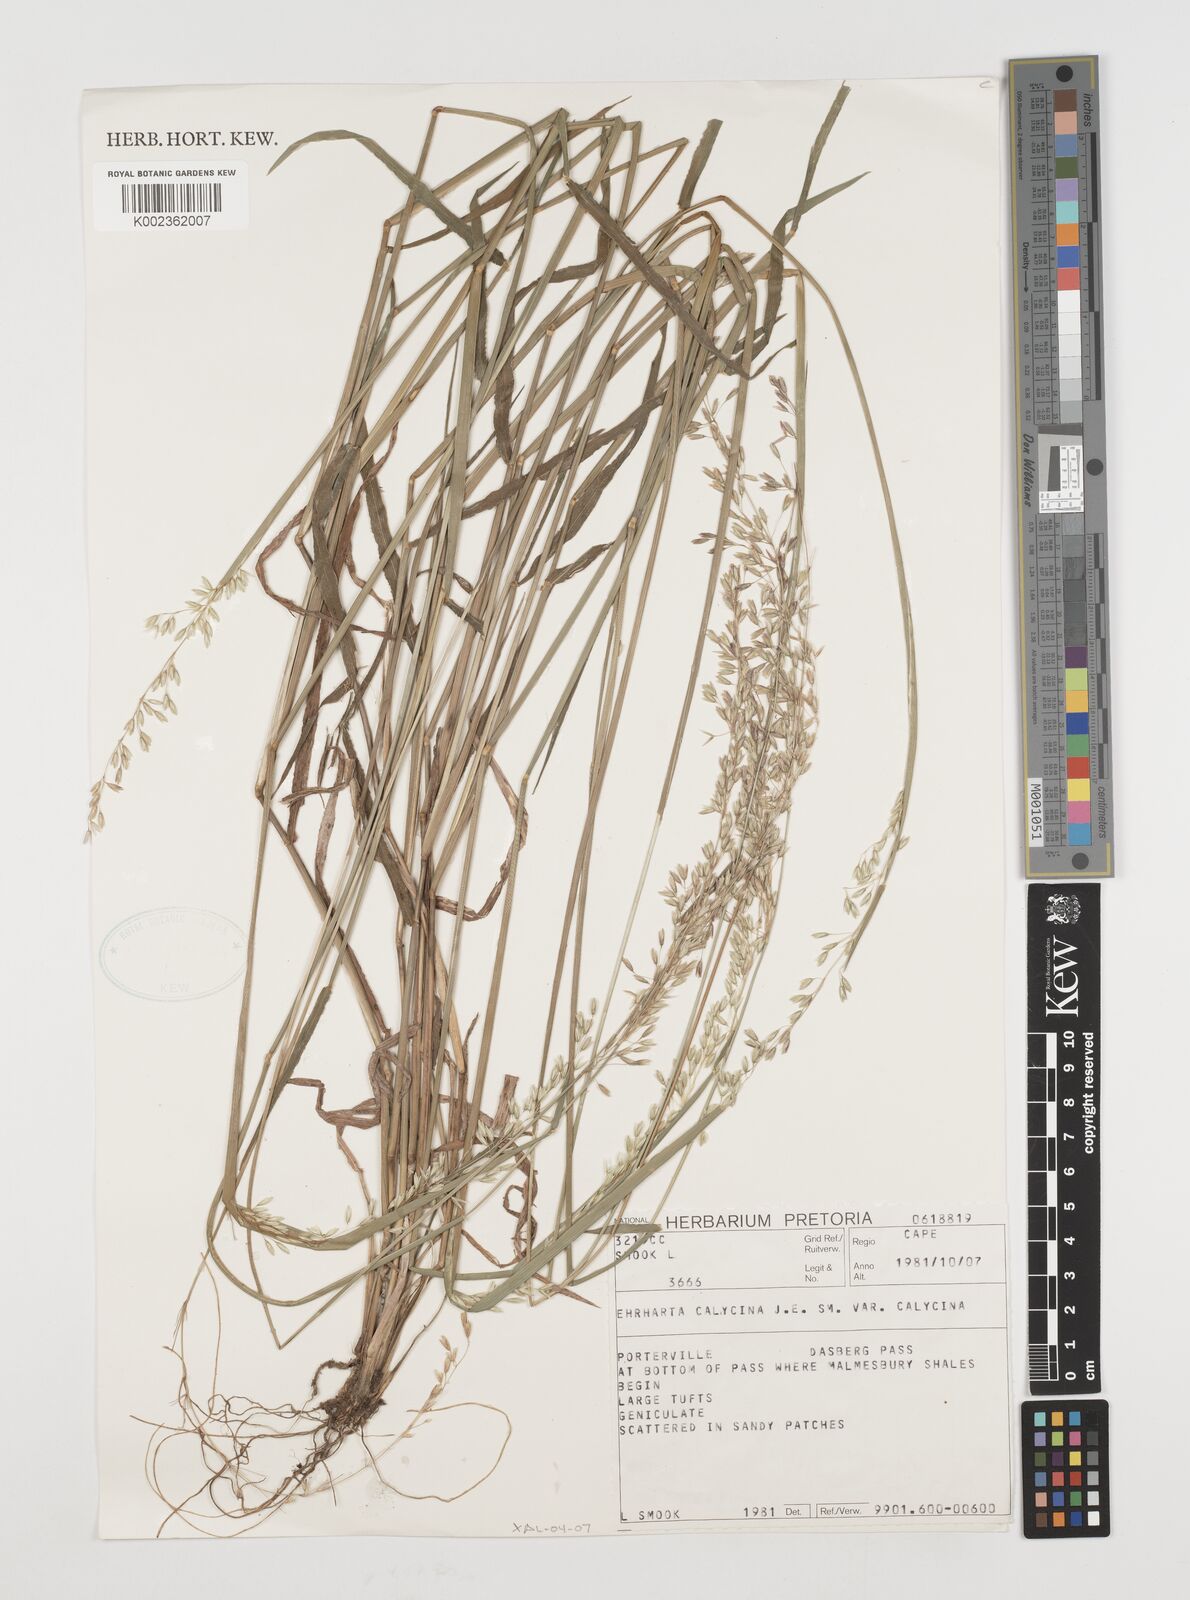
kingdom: Plantae
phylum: Tracheophyta
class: Liliopsida
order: Poales
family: Poaceae
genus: Ehrharta
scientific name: Ehrharta calycina
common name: Perennial veldtgrass
